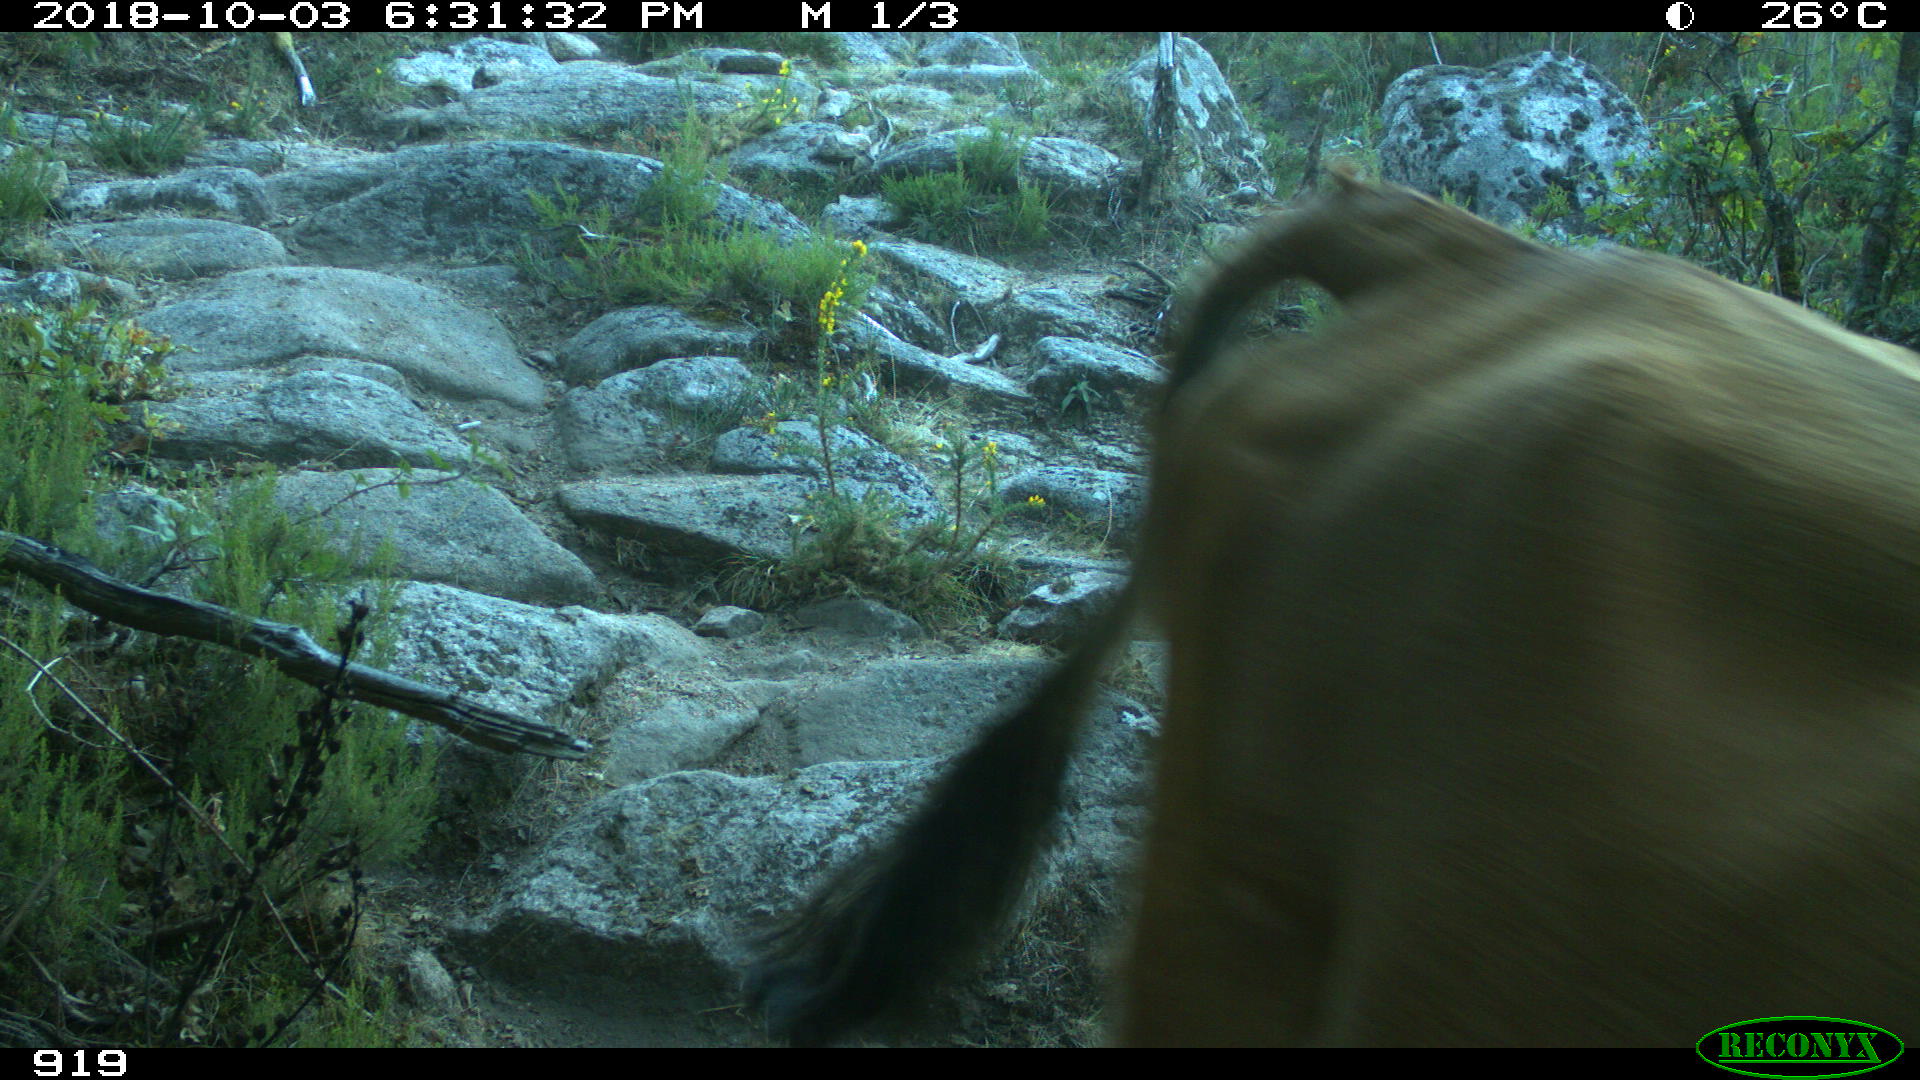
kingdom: Animalia
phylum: Chordata
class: Mammalia
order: Artiodactyla
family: Bovidae
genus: Bos
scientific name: Bos taurus
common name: Domesticated cattle
